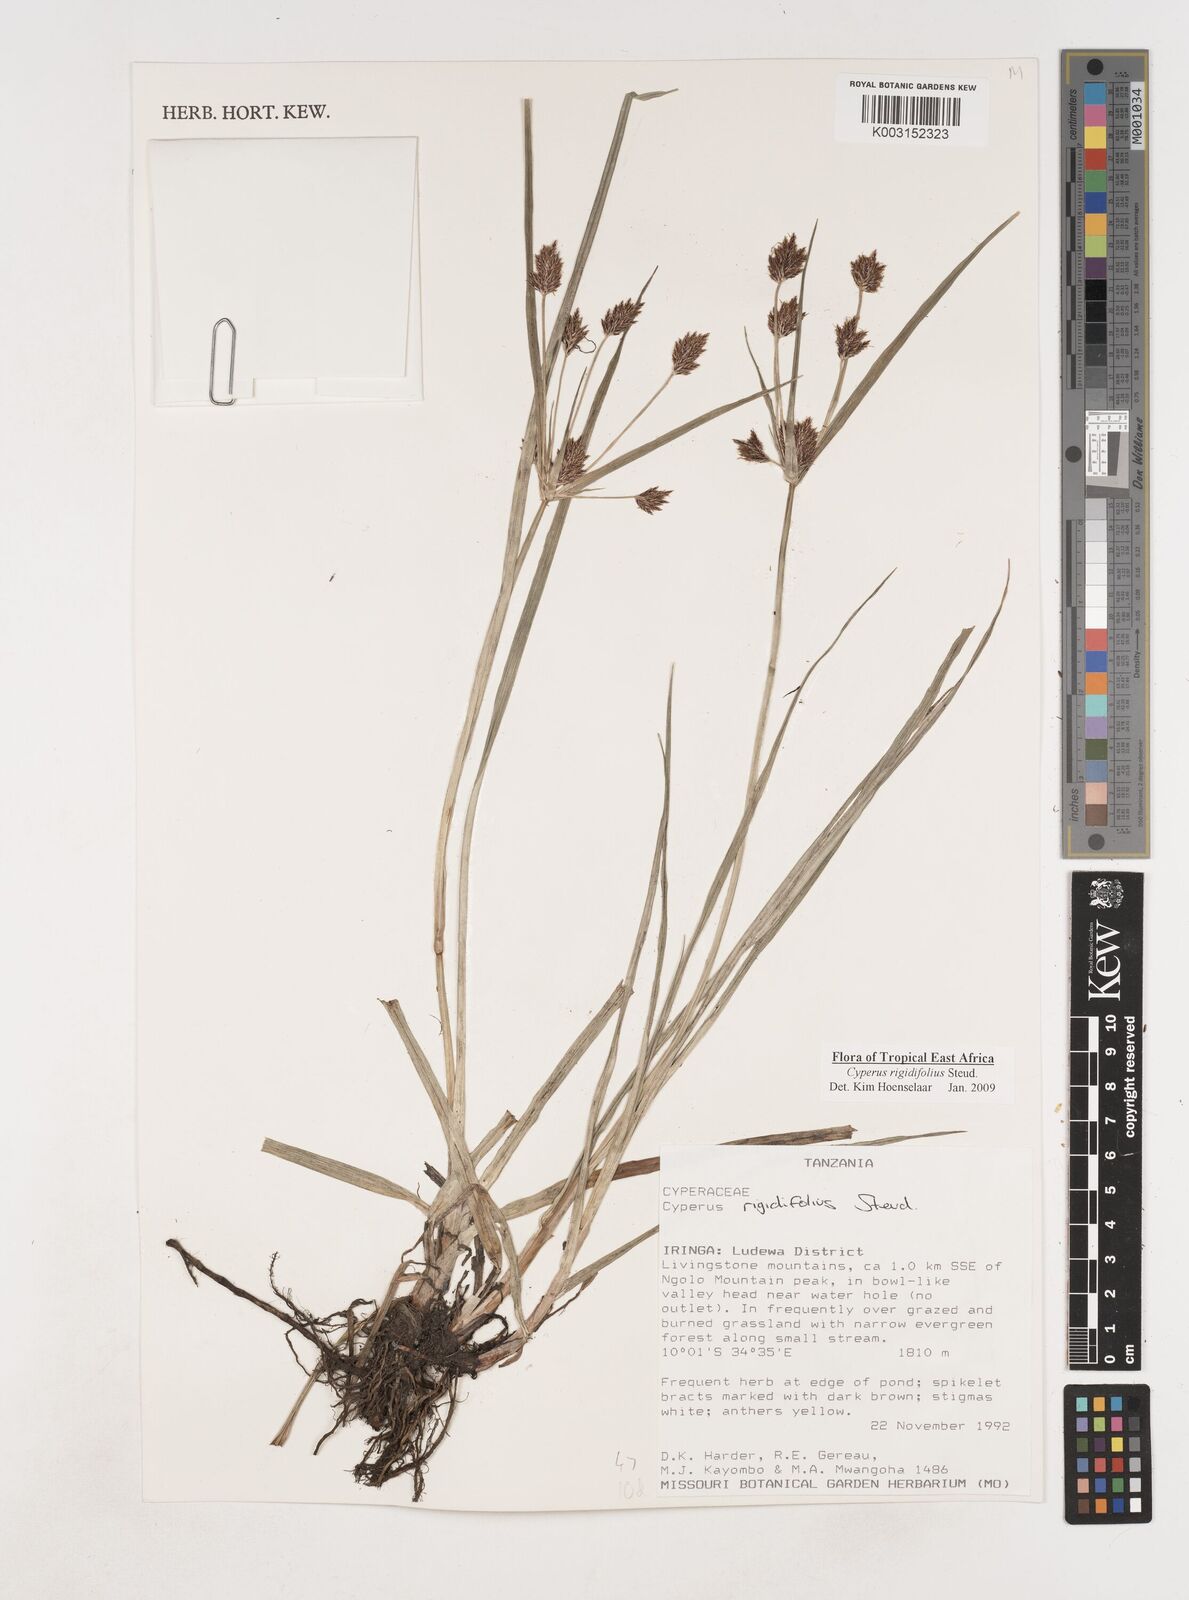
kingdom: Plantae
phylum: Tracheophyta
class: Liliopsida
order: Poales
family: Cyperaceae
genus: Cyperus
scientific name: Cyperus rigidifolius
